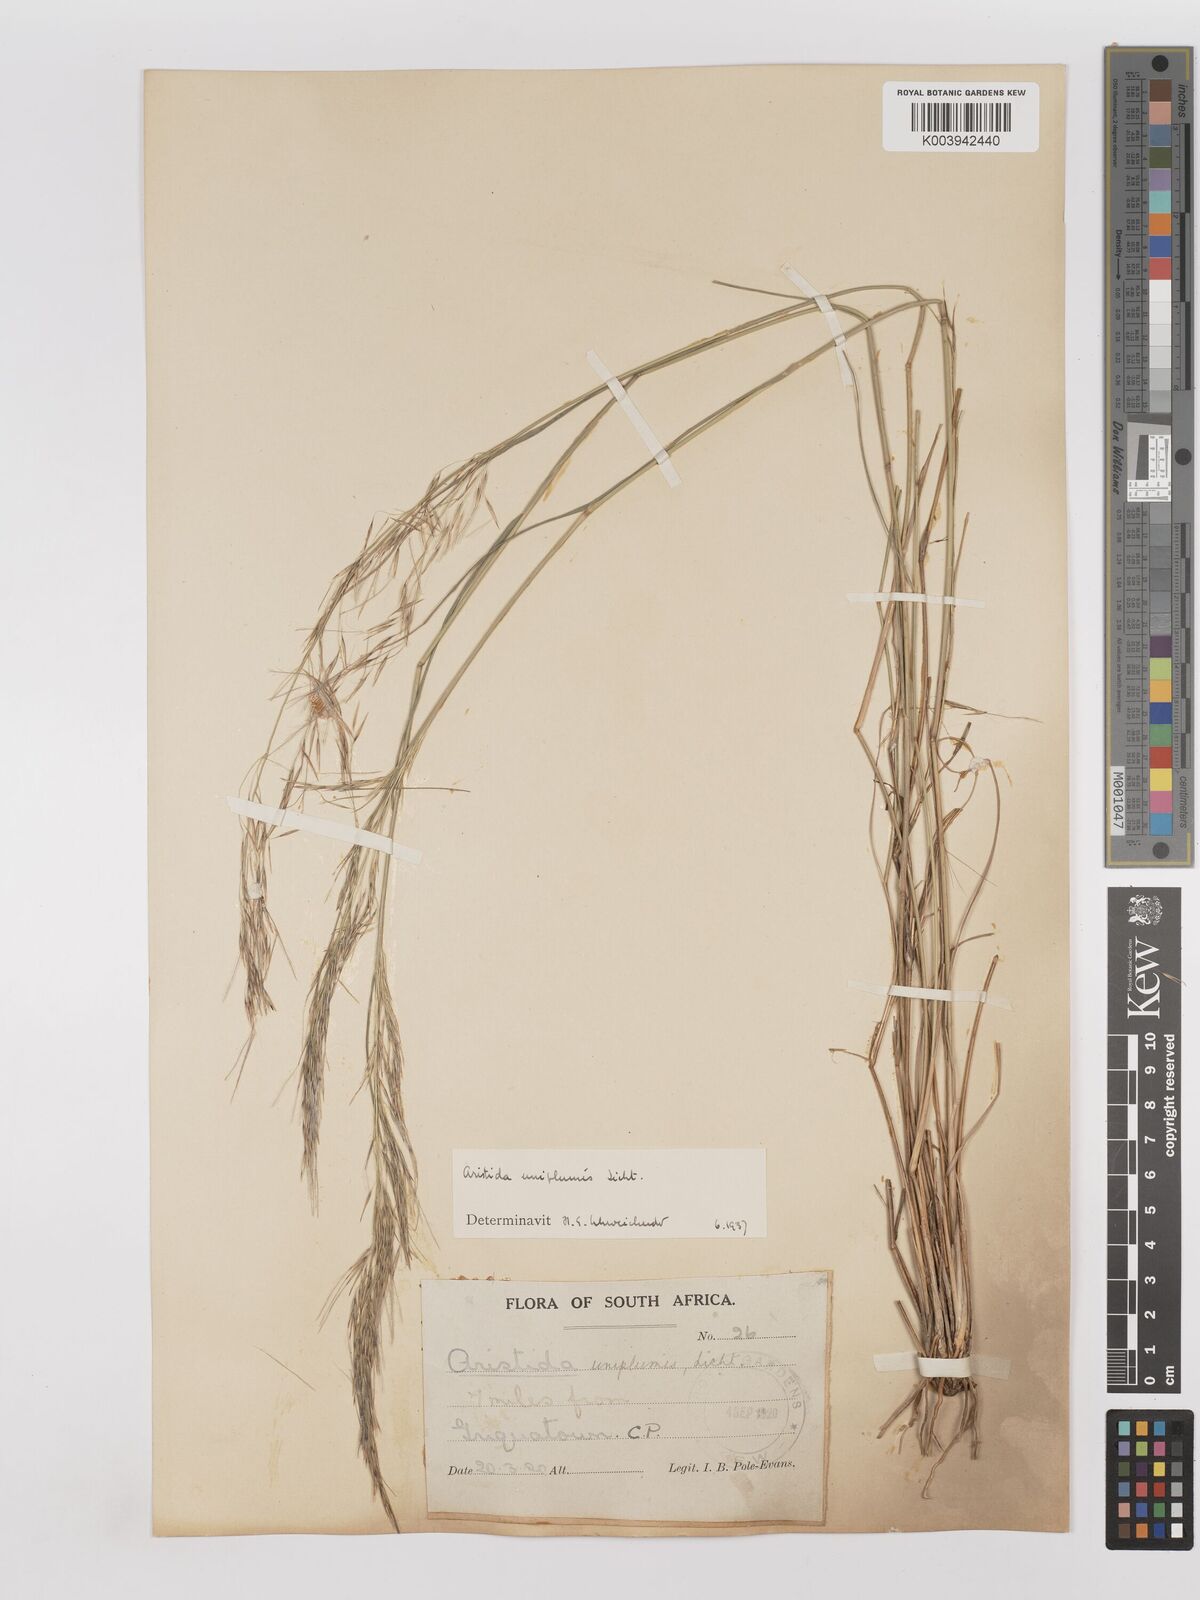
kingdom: Plantae
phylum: Tracheophyta
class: Liliopsida
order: Poales
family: Poaceae
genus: Stipagrostis
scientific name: Stipagrostis uniplumis
